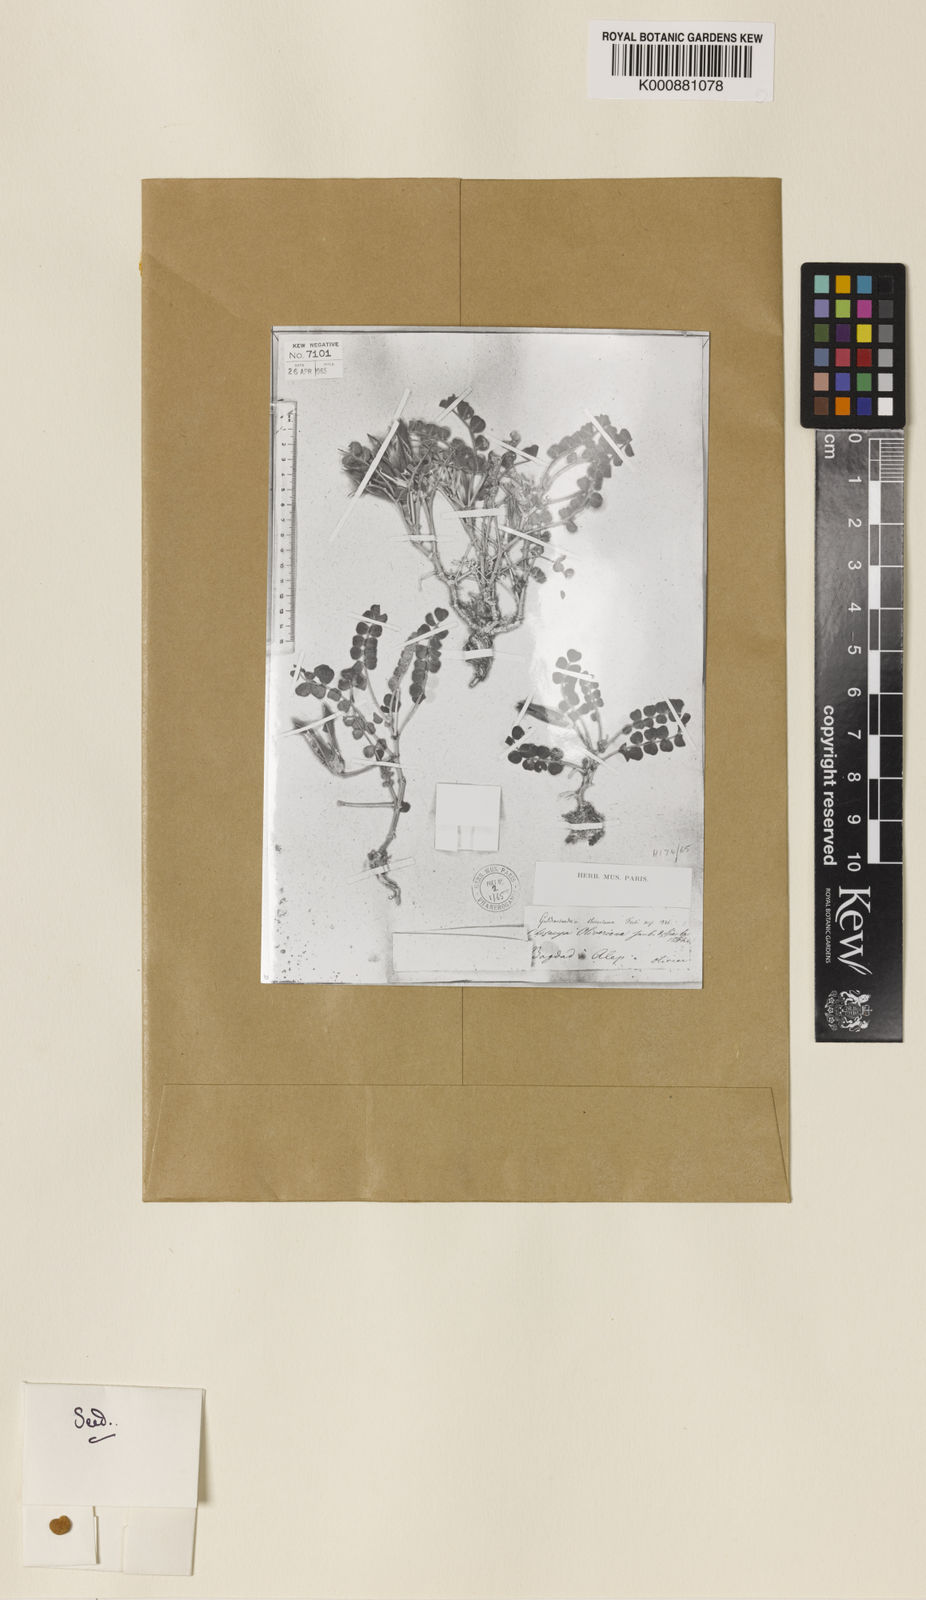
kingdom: Plantae
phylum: Tracheophyta
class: Magnoliopsida
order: Fabales
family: Fabaceae
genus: Chesneya
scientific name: Chesneya rytidosperma
